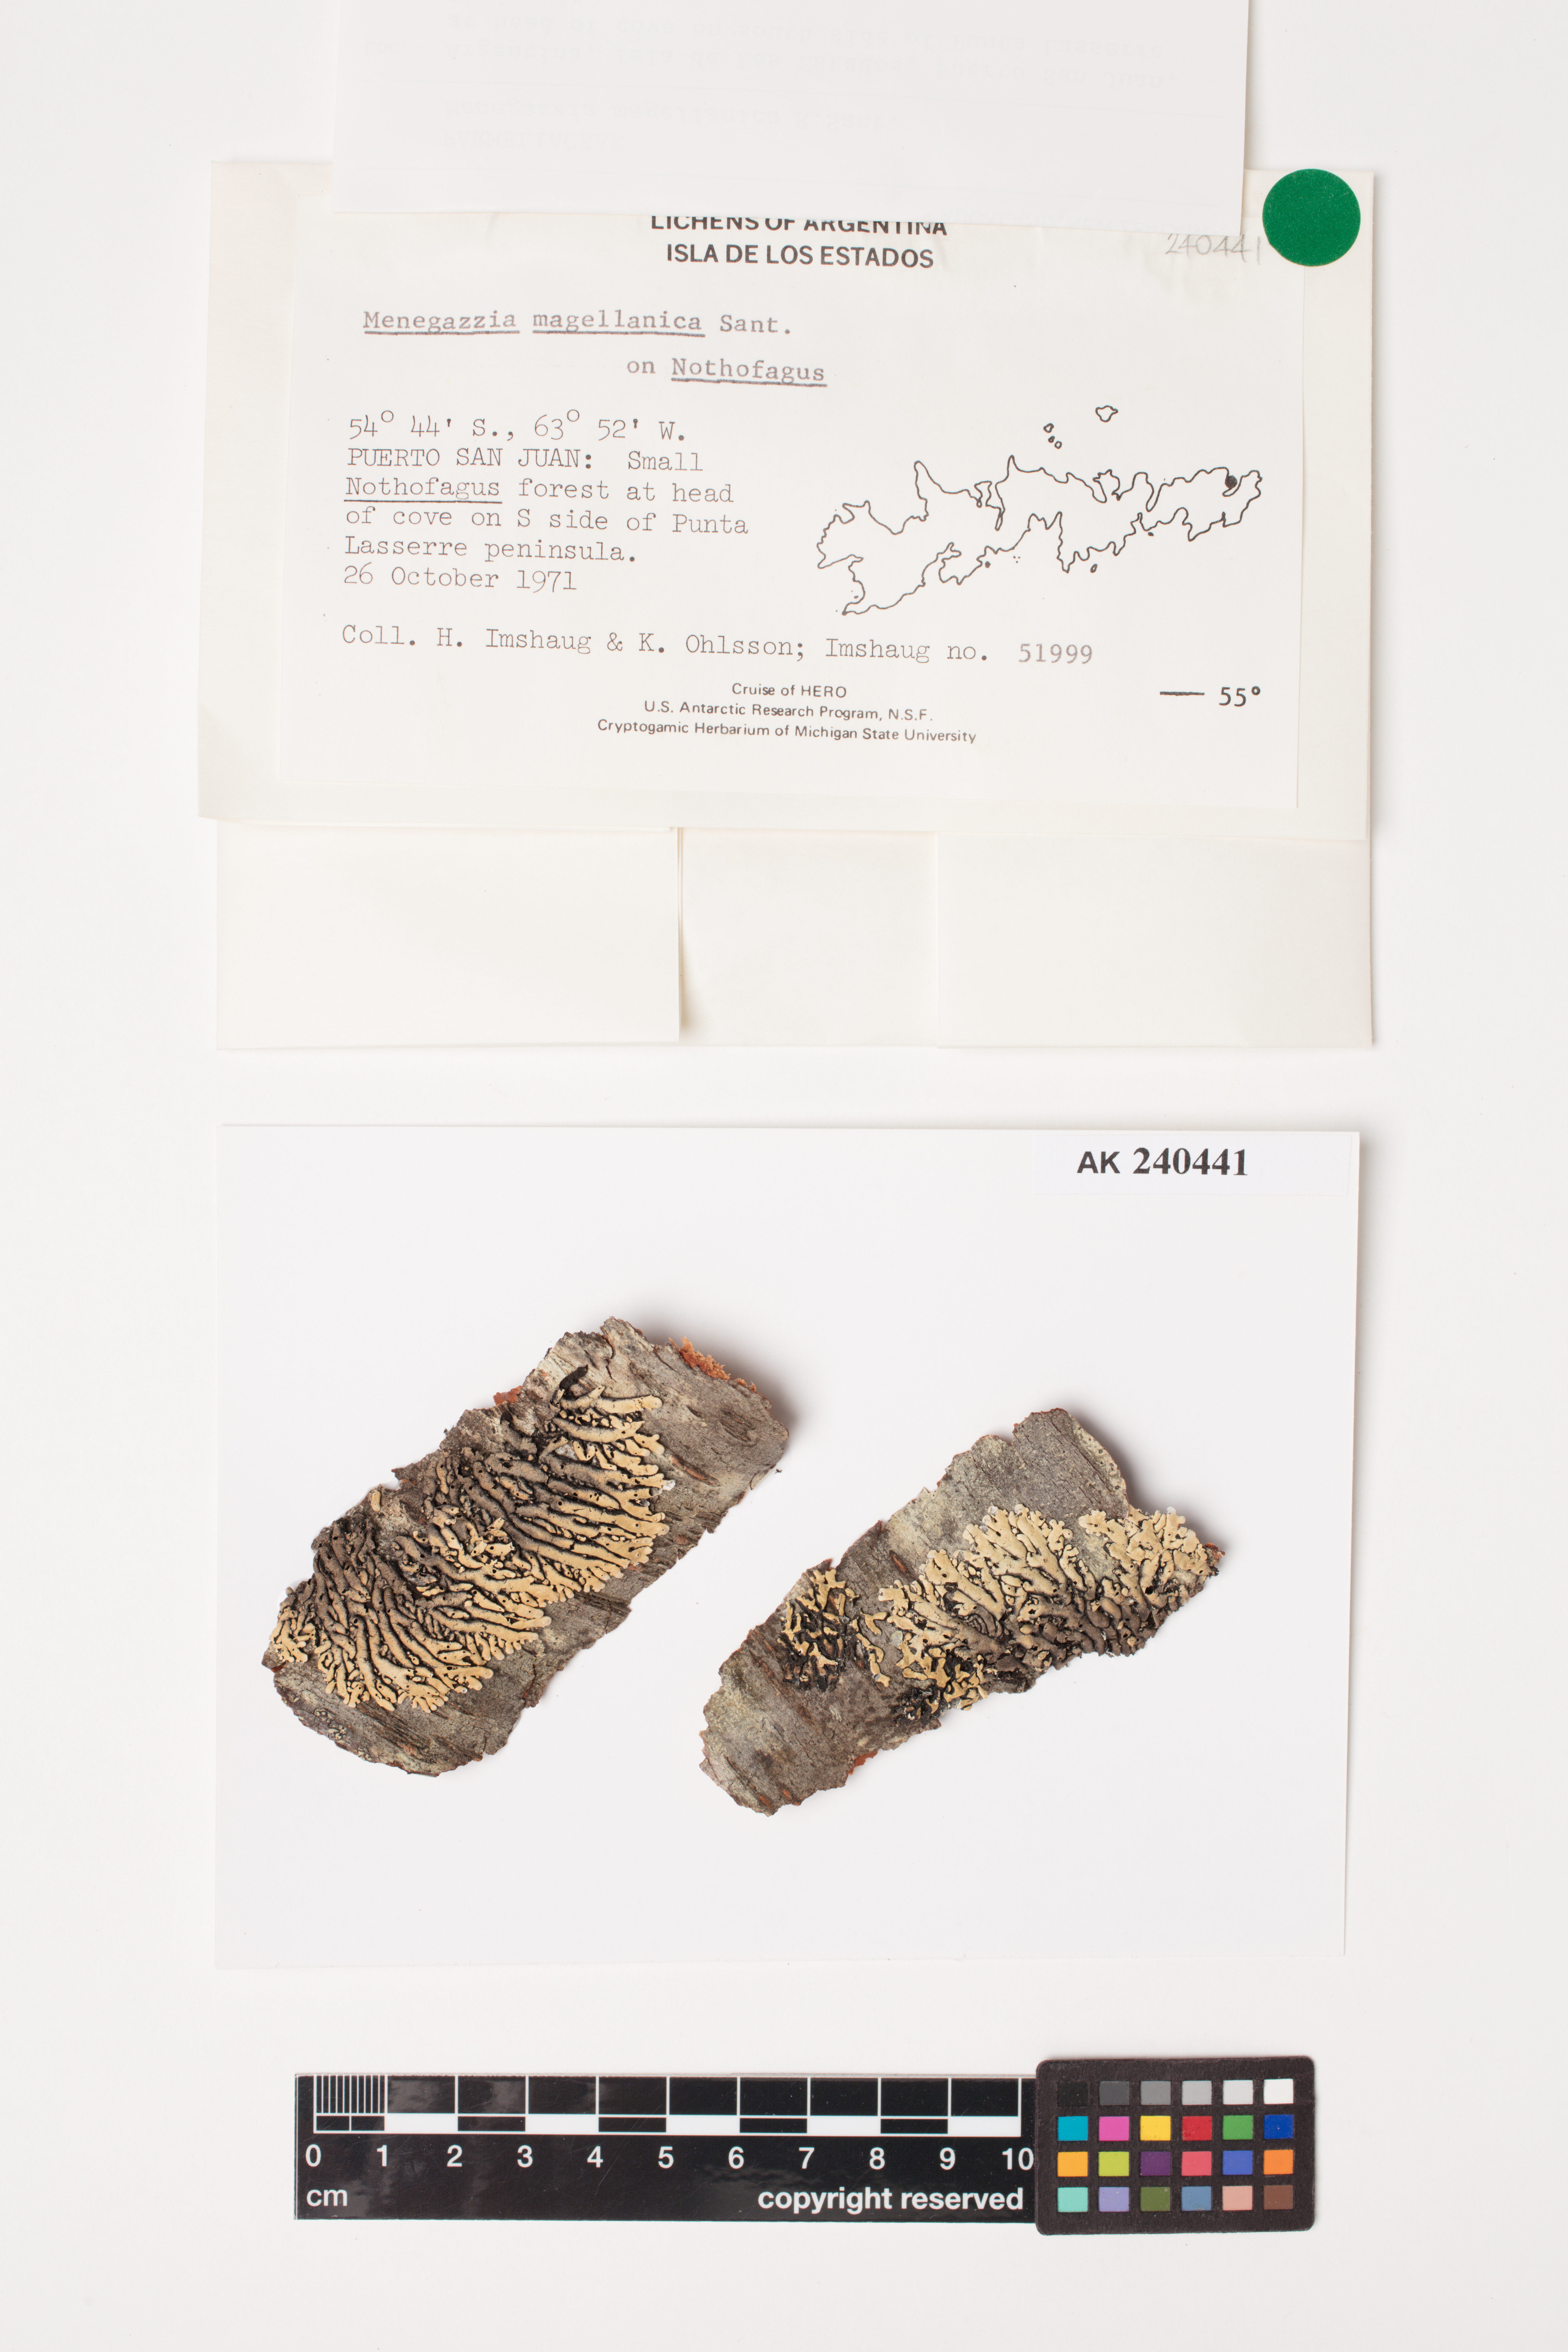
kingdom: Fungi
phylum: Ascomycota
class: Lecanoromycetes
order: Lecanorales
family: Parmeliaceae
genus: Menegazzia
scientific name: Menegazzia subpertusa
